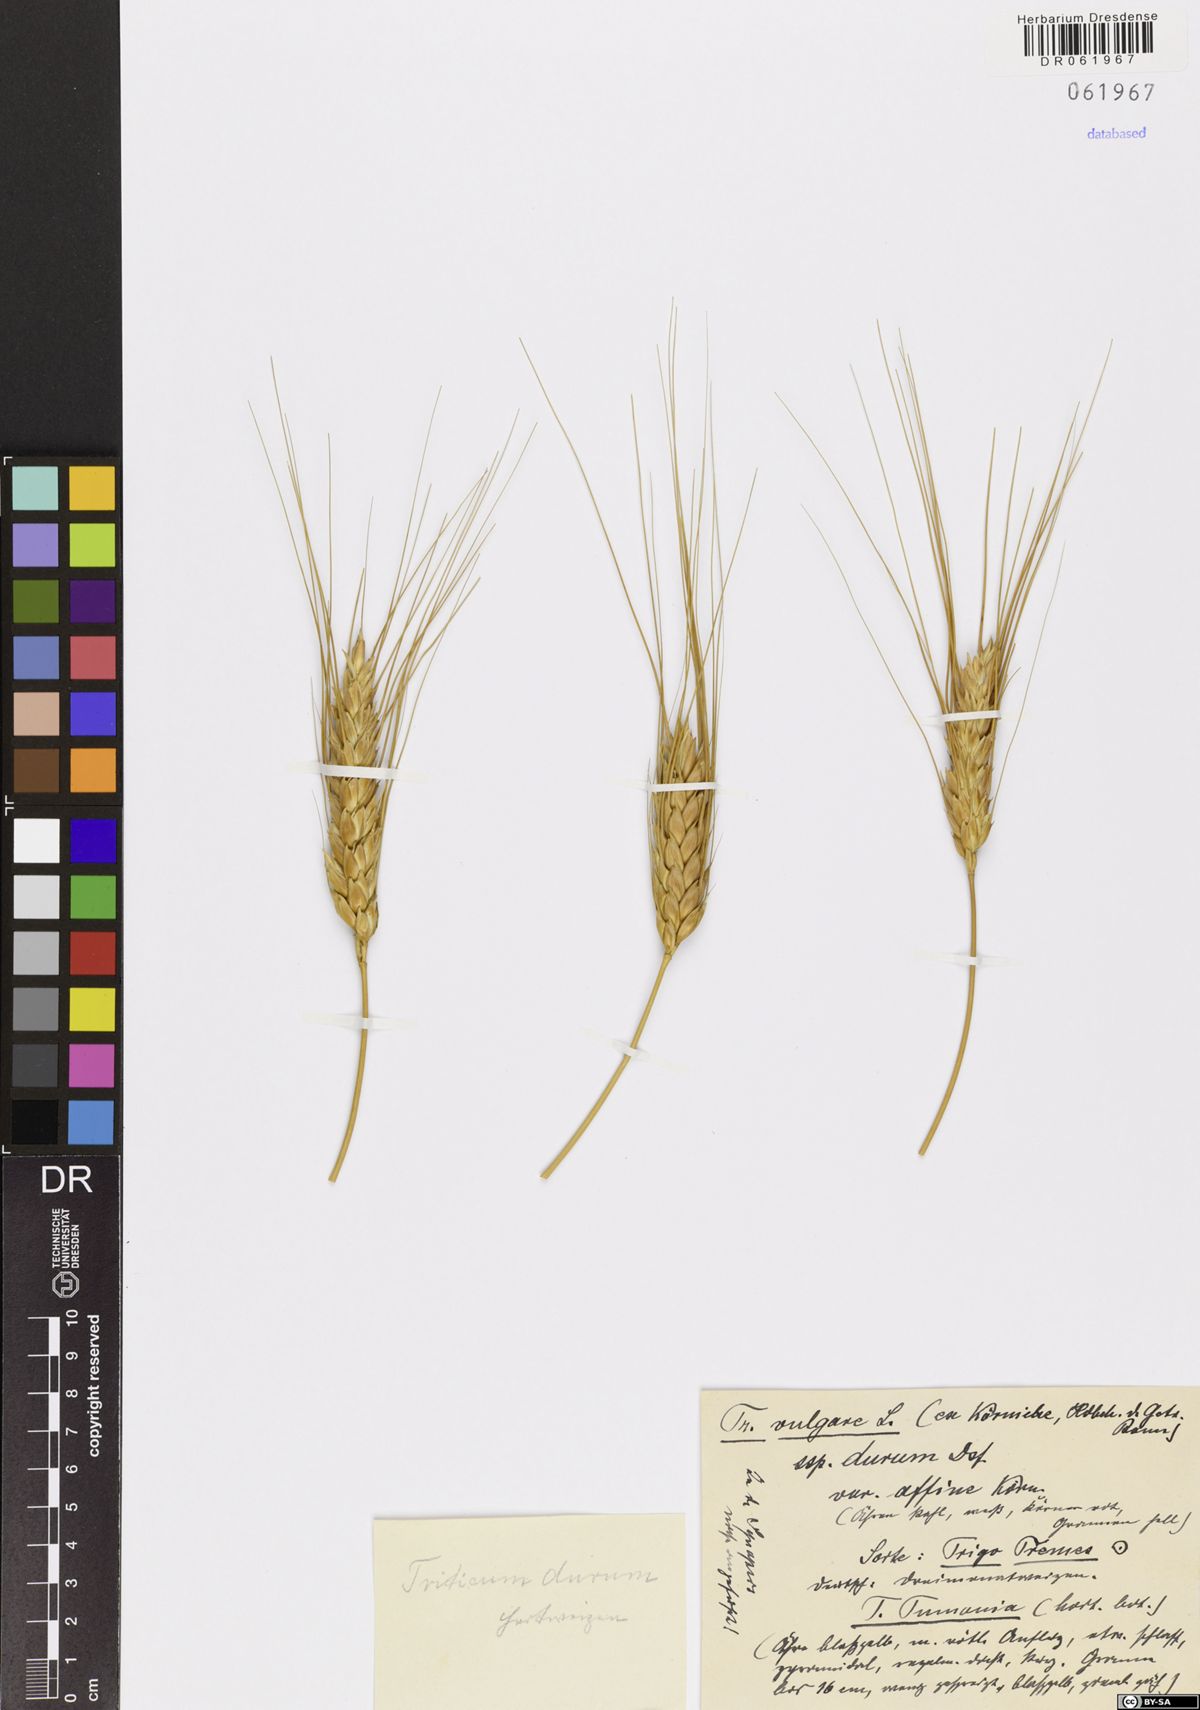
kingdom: Plantae
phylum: Tracheophyta
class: Liliopsida
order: Poales
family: Poaceae
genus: Triticum
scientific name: Triticum turgidum
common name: Rivet wheat
